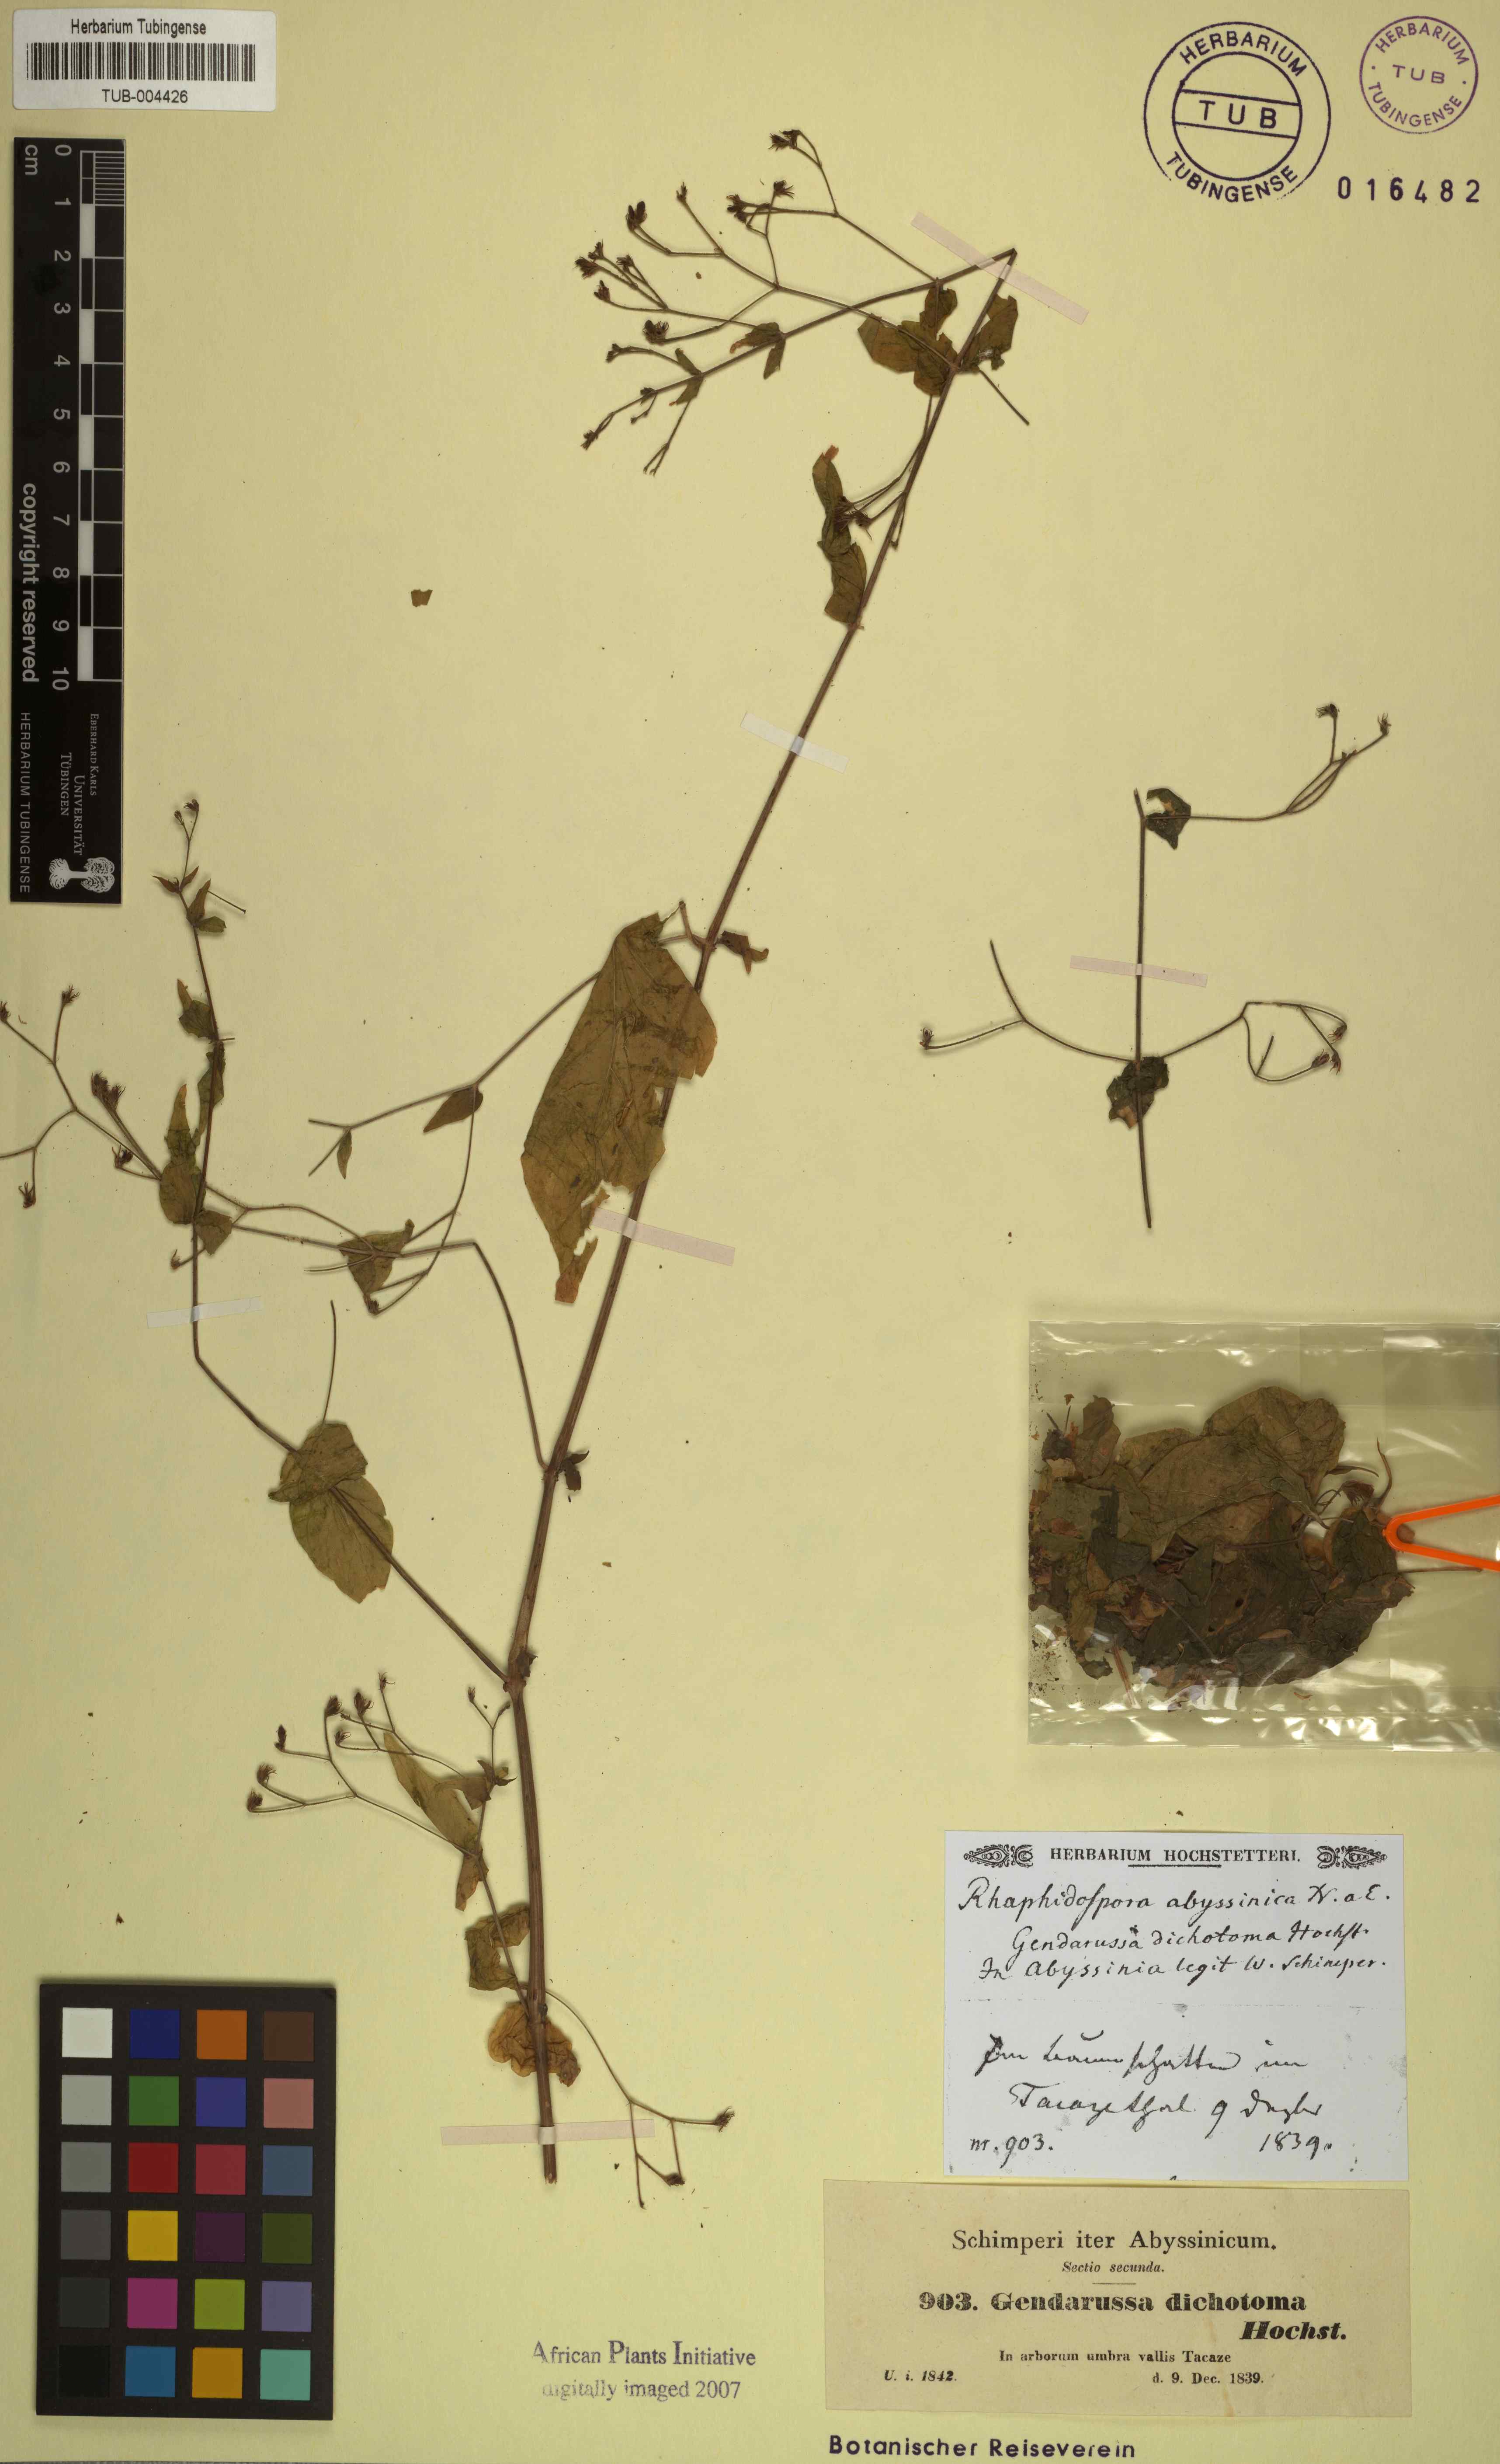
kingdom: Plantae
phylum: Tracheophyta
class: Magnoliopsida
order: Lamiales
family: Acanthaceae
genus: Justicia
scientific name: Justicia scandens
